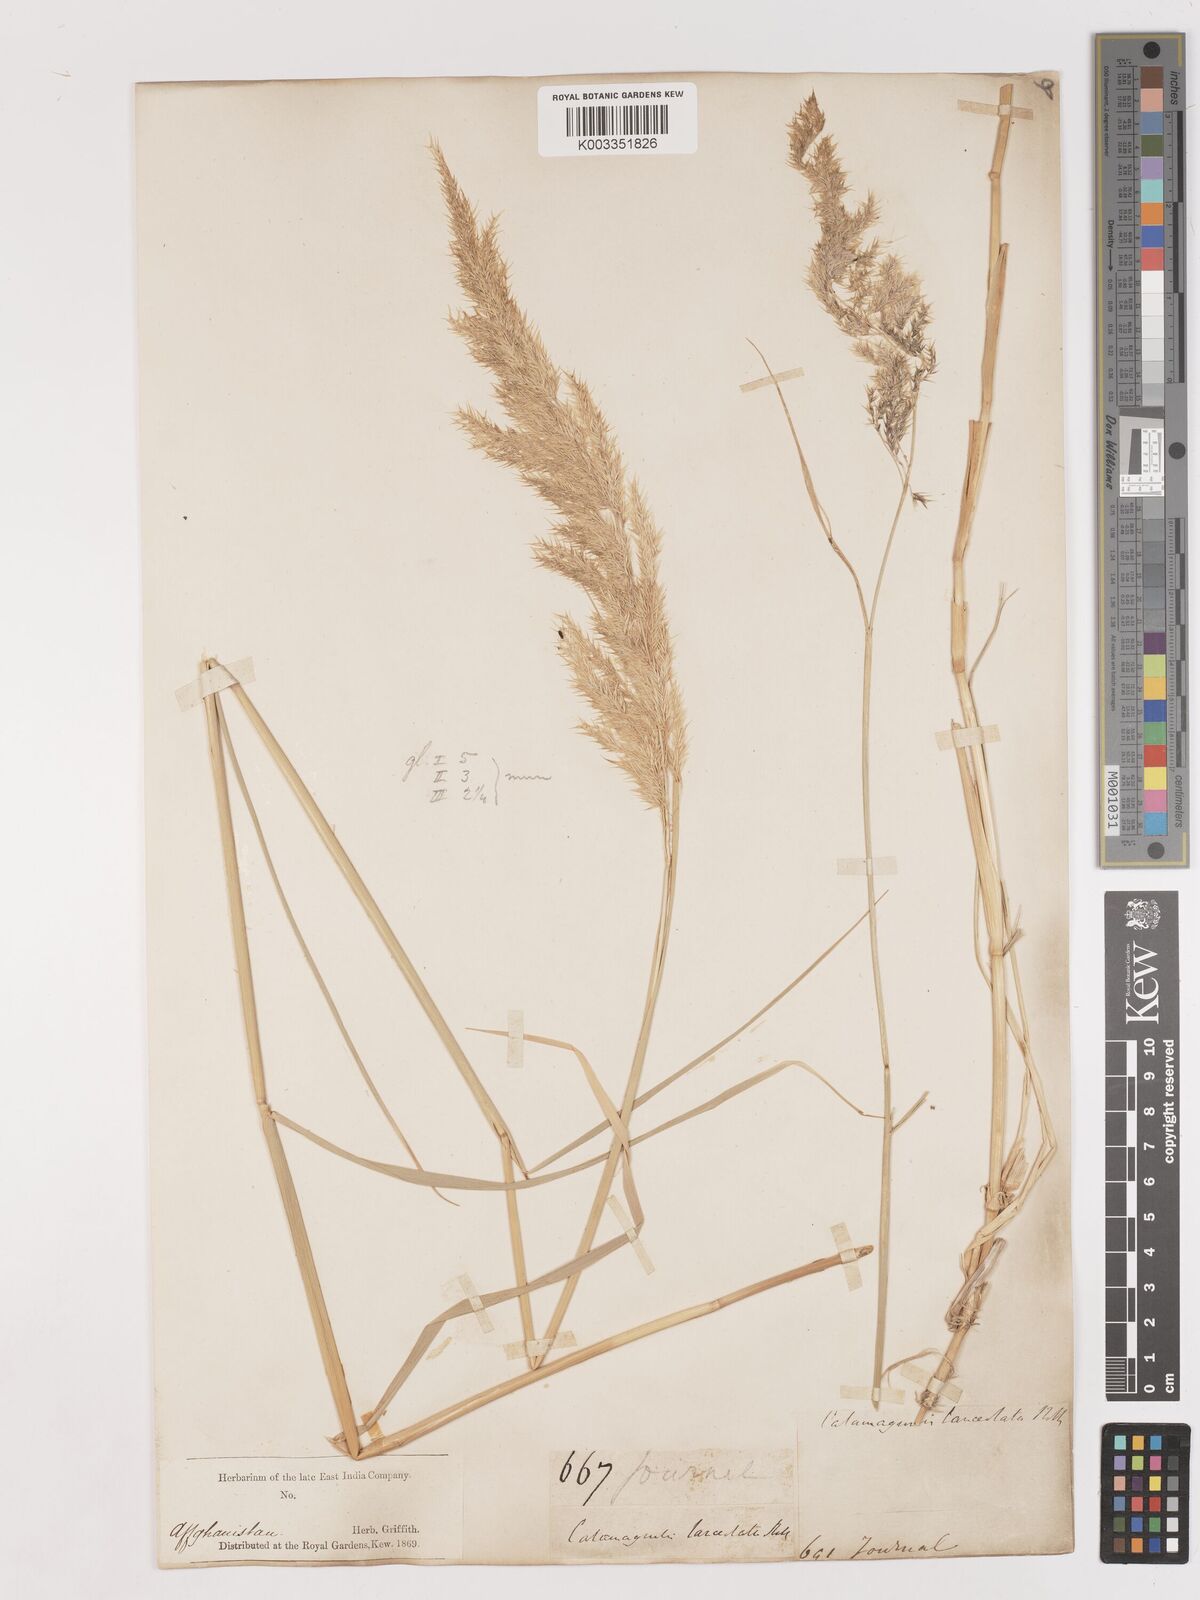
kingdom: Plantae
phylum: Tracheophyta
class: Liliopsida
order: Poales
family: Poaceae
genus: Calamagrostis
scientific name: Calamagrostis pseudophragmites
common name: Coastal small-reed
